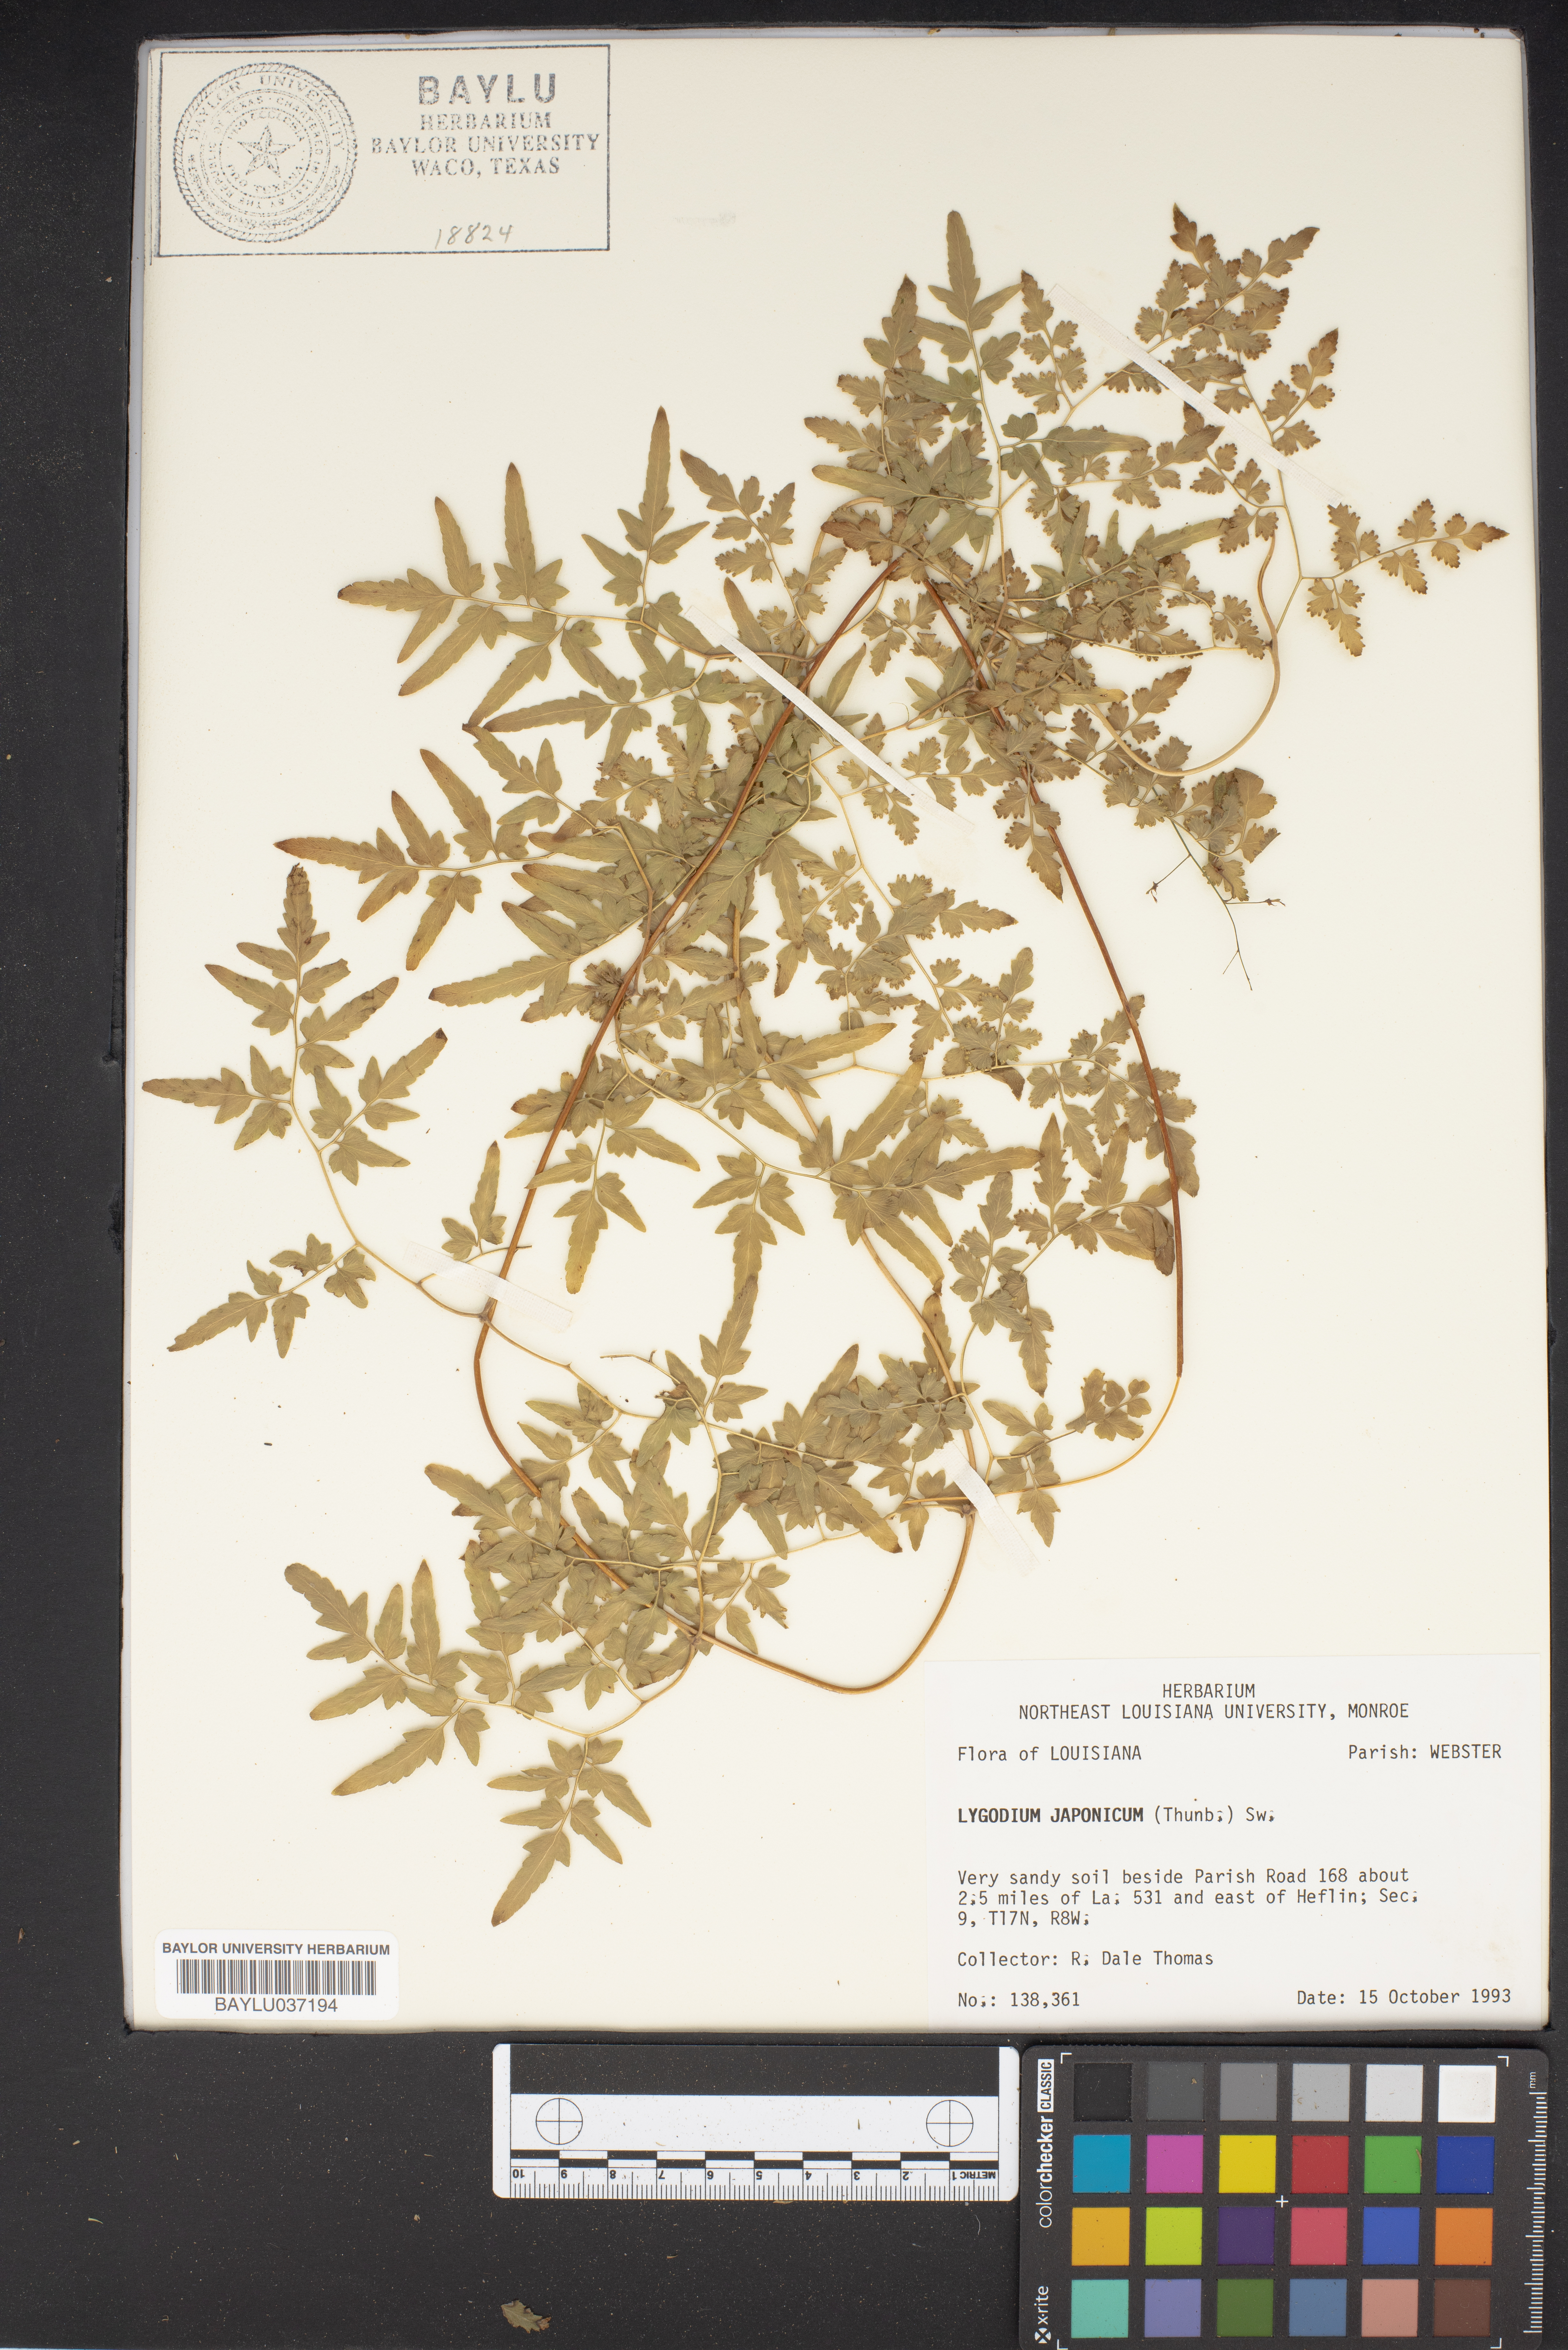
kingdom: Plantae
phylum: Tracheophyta
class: Polypodiopsida
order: Schizaeales
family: Lygodiaceae
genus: Lygodium
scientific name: Lygodium japonicum
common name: Japanese climbing fern
